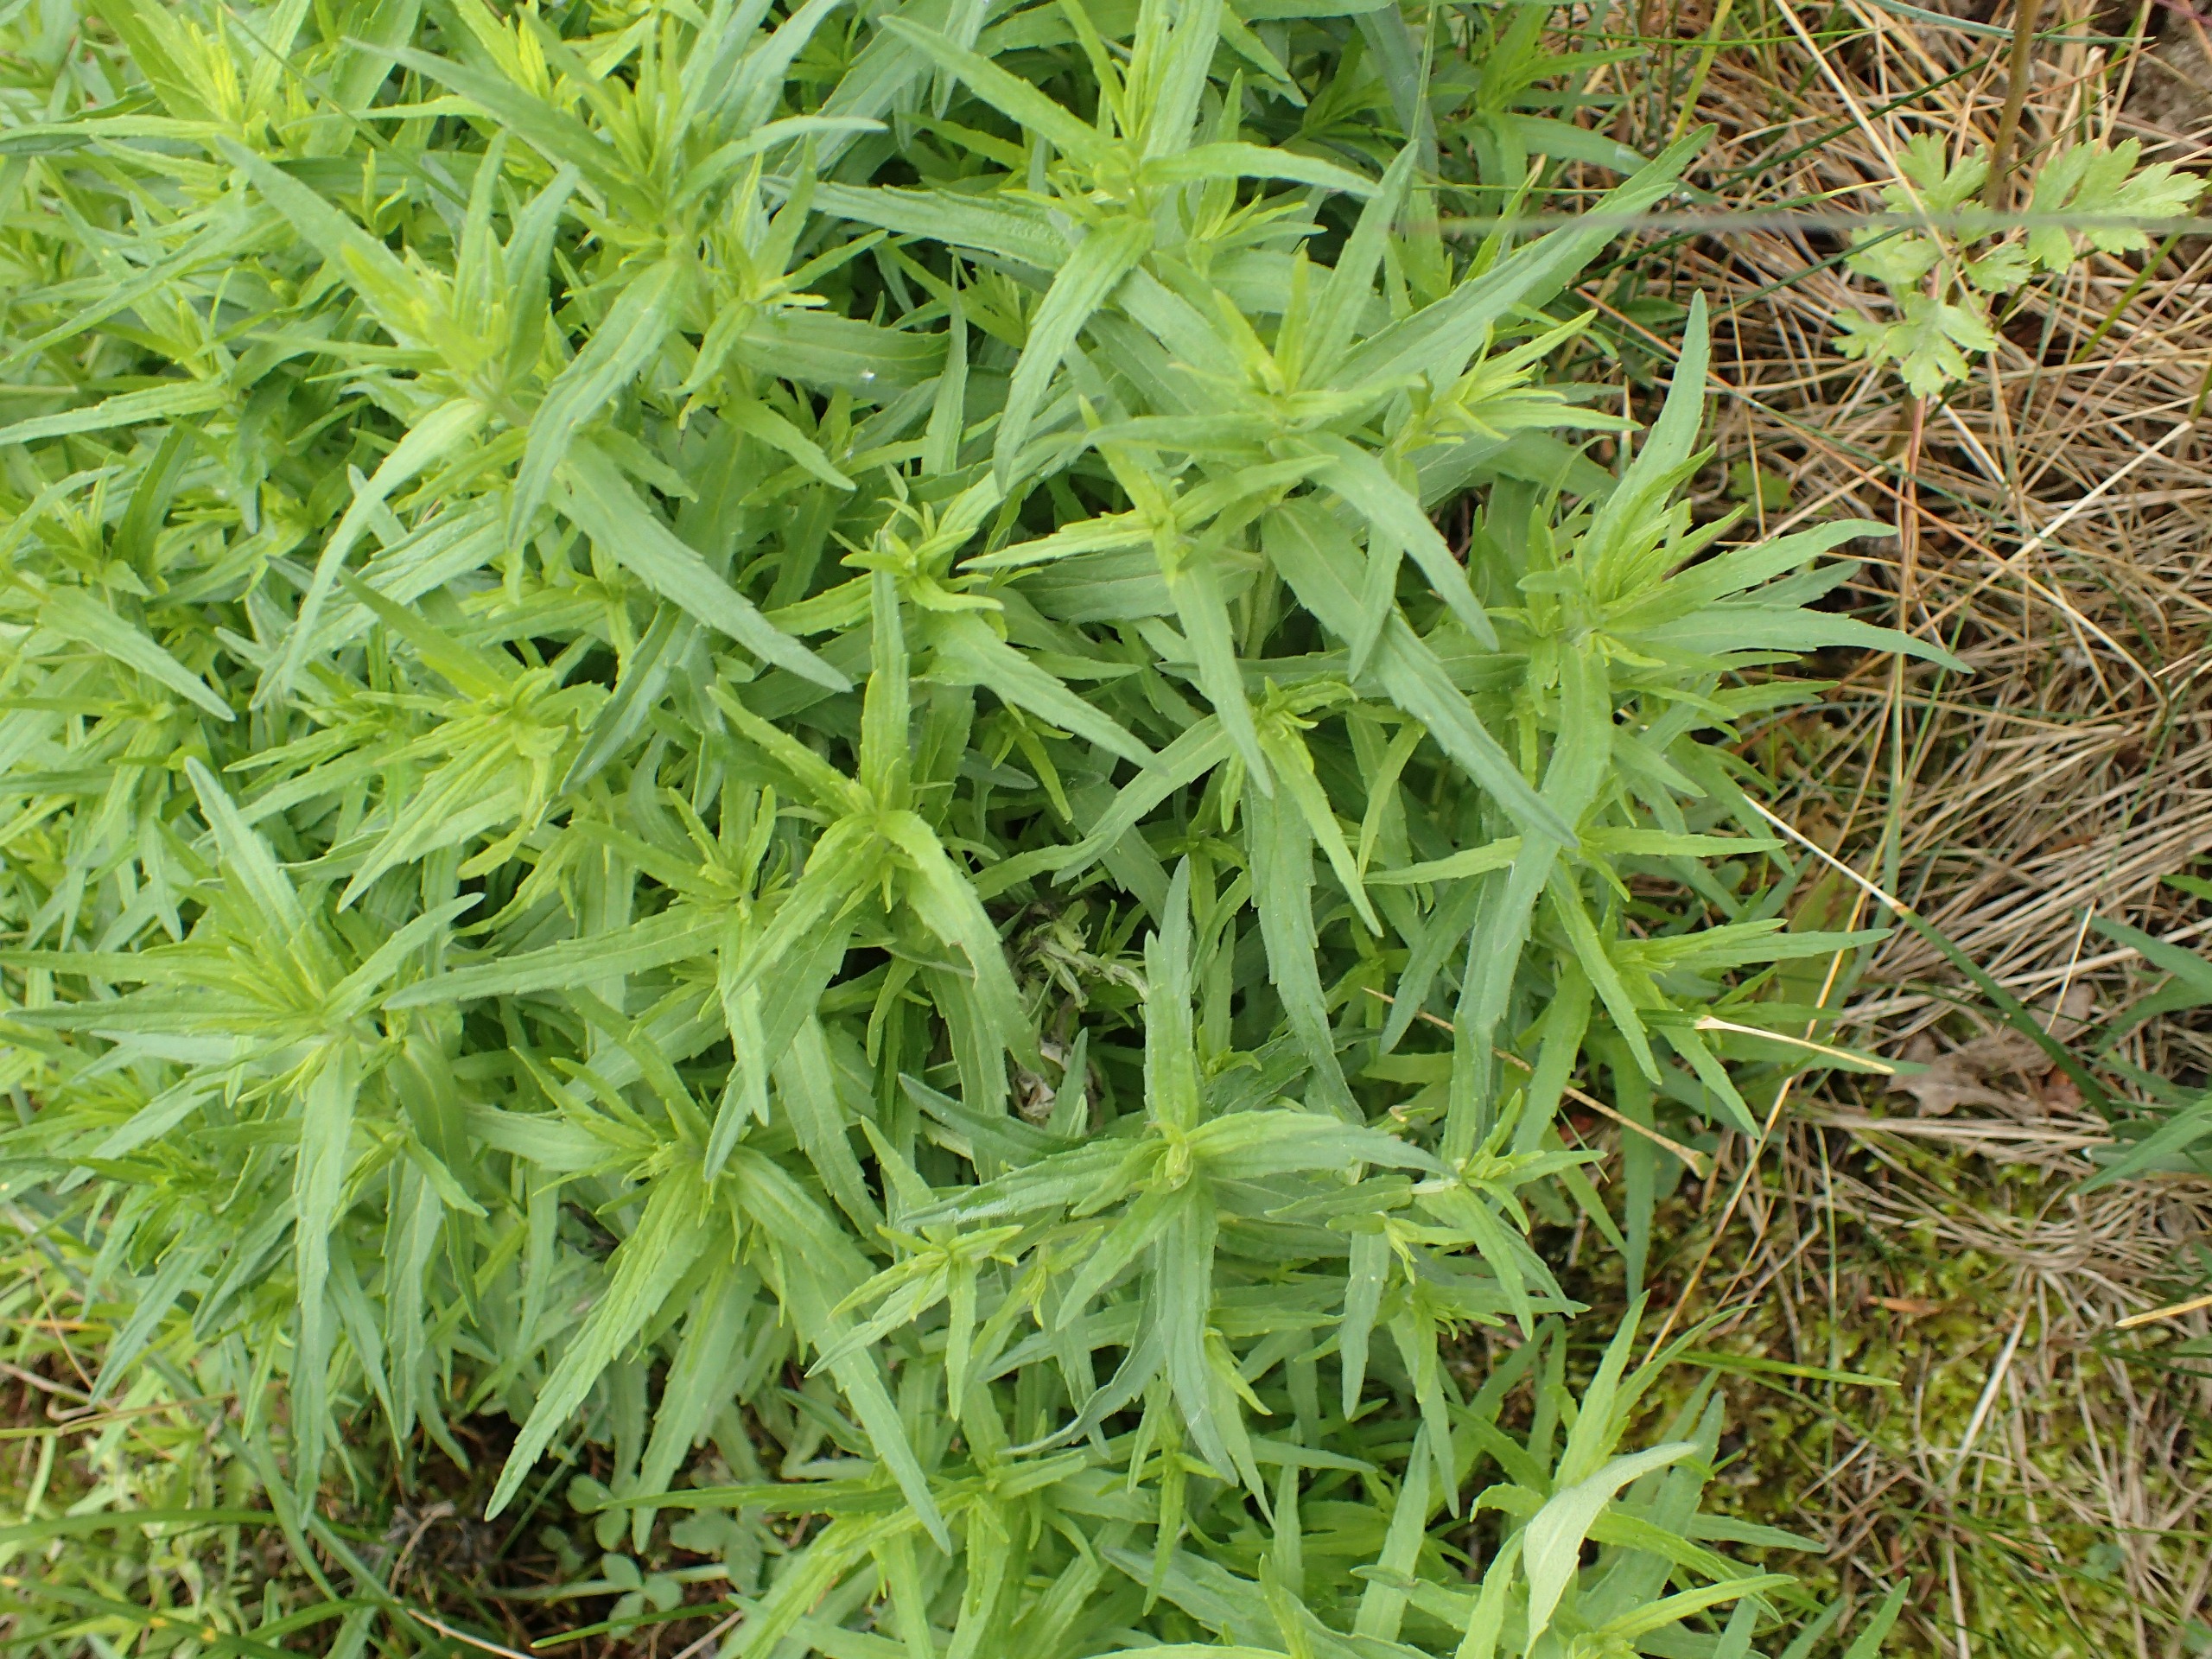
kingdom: Plantae
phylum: Tracheophyta
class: Magnoliopsida
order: Lamiales
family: Orobanchaceae
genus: Odontites
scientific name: Odontites
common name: Rødtopslægten
